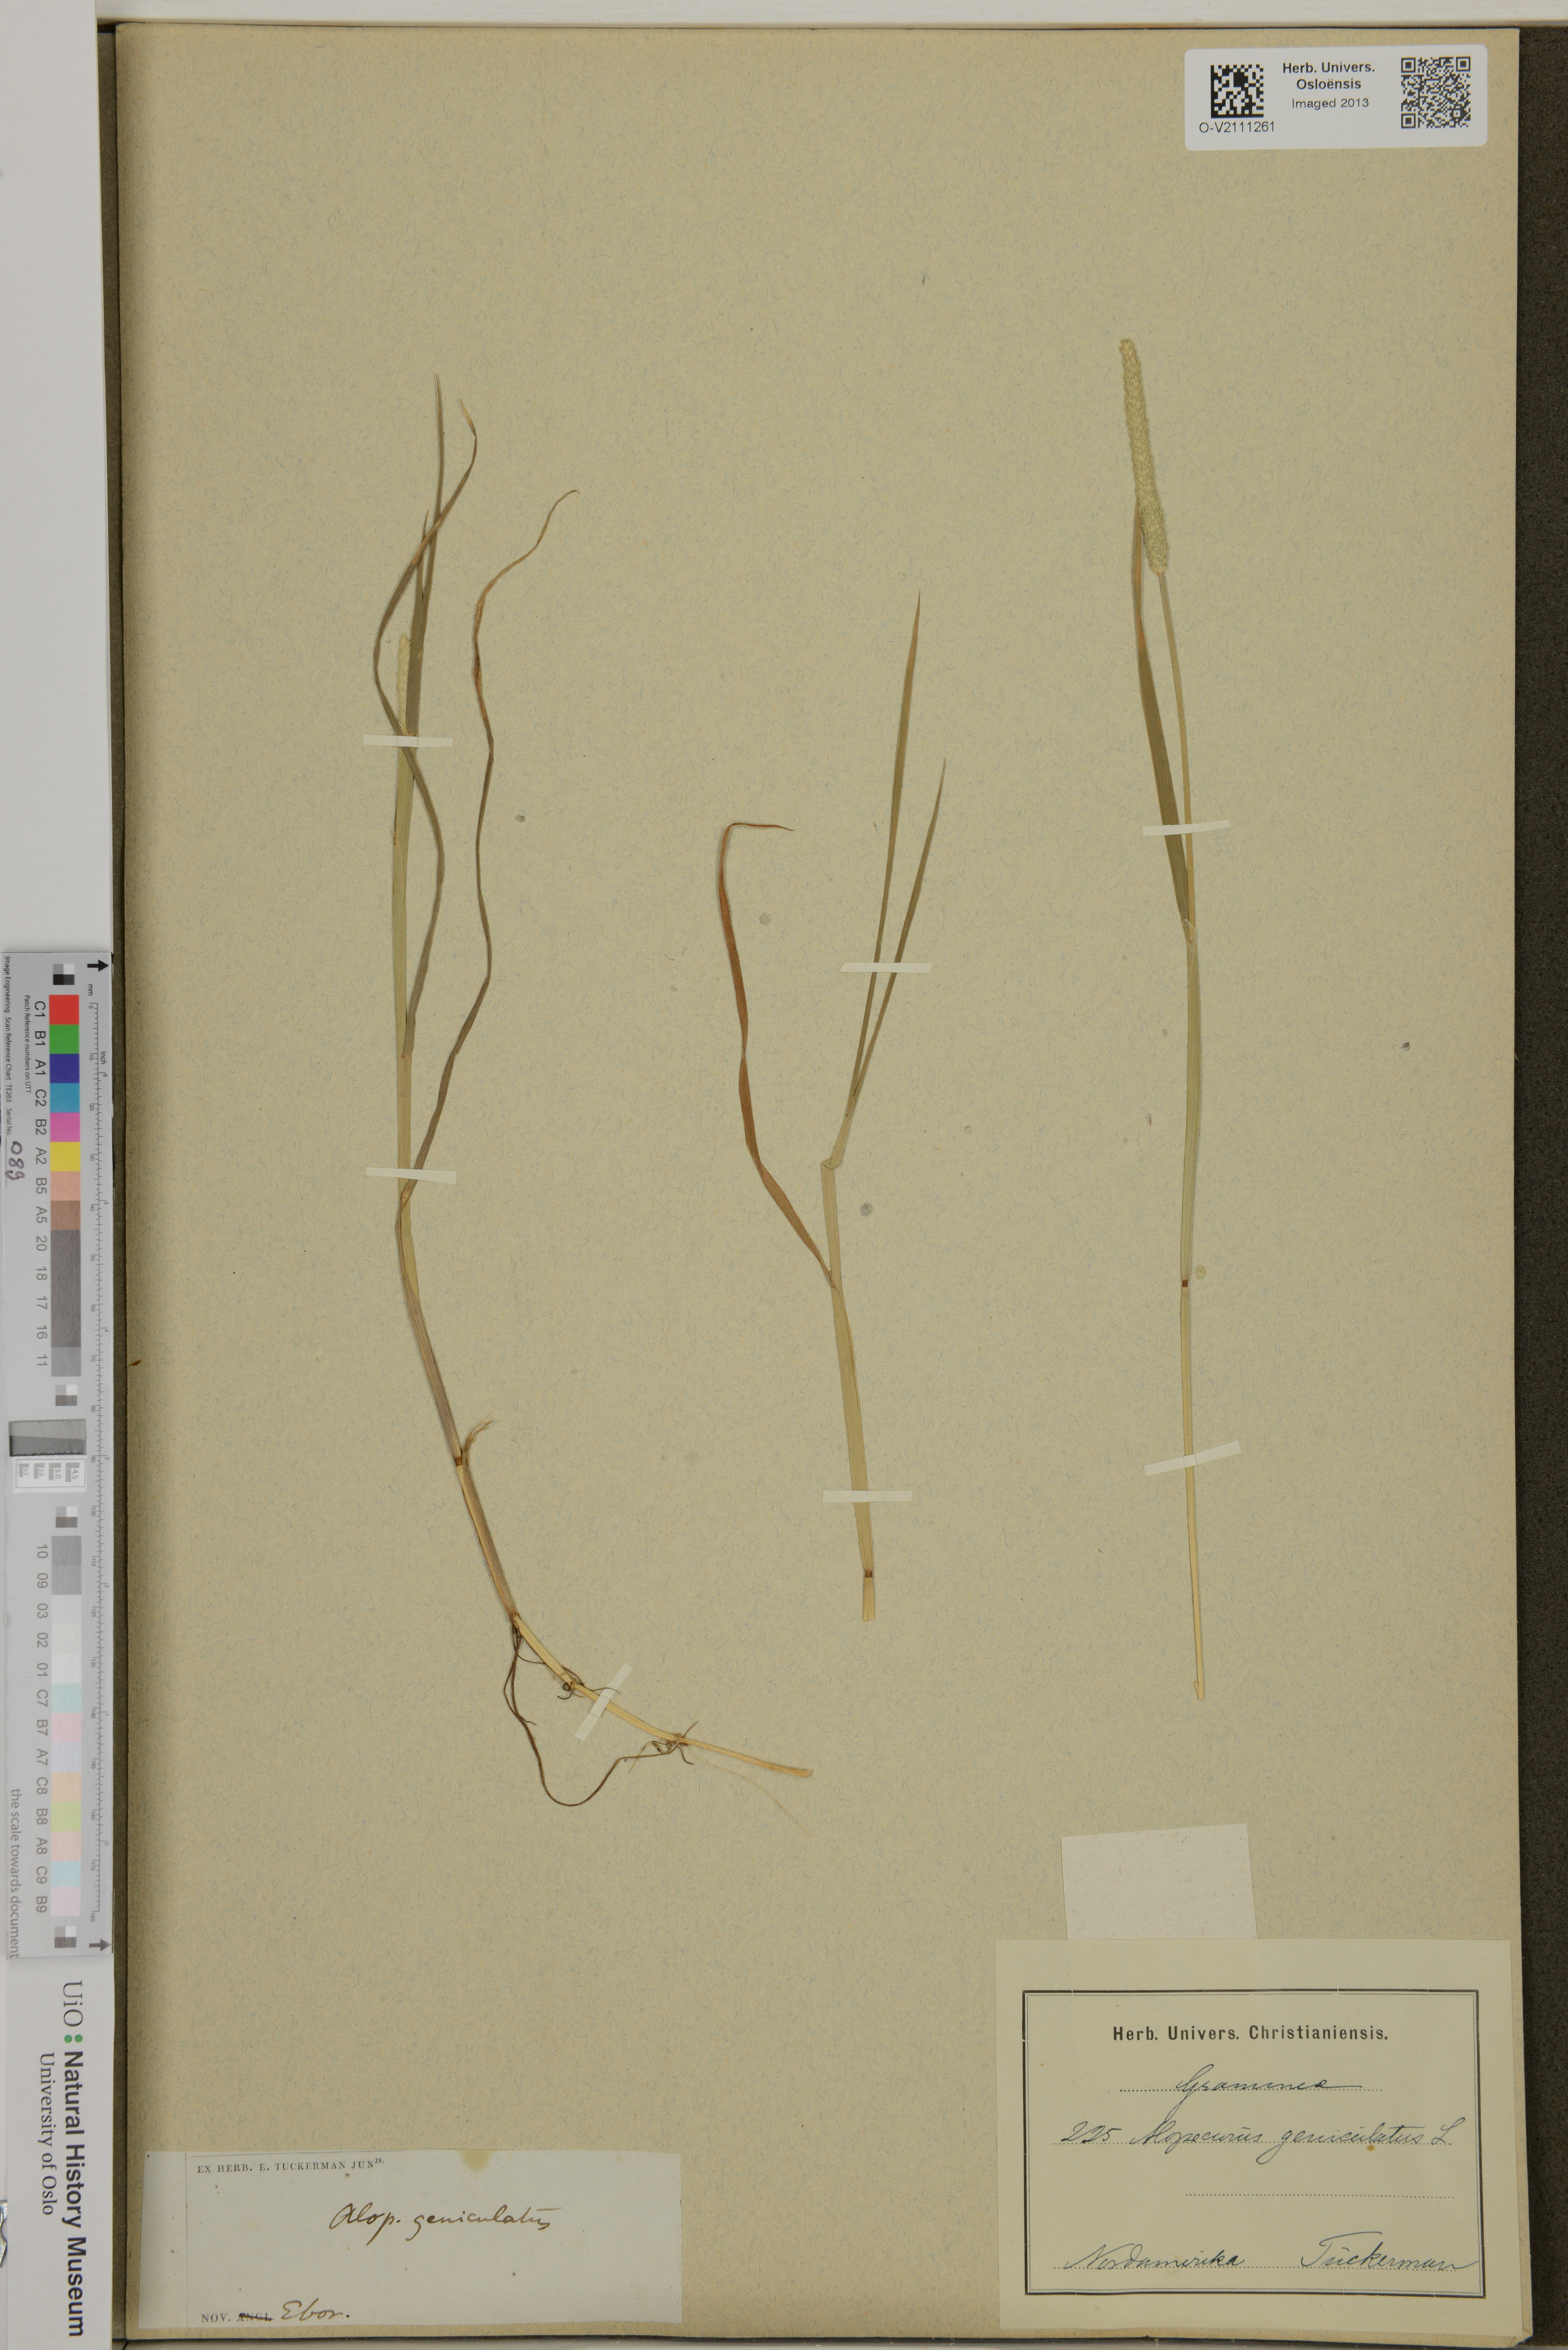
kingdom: Plantae
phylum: Tracheophyta
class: Liliopsida
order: Poales
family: Poaceae
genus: Alopecurus
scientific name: Alopecurus geniculatus
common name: Water foxtail
